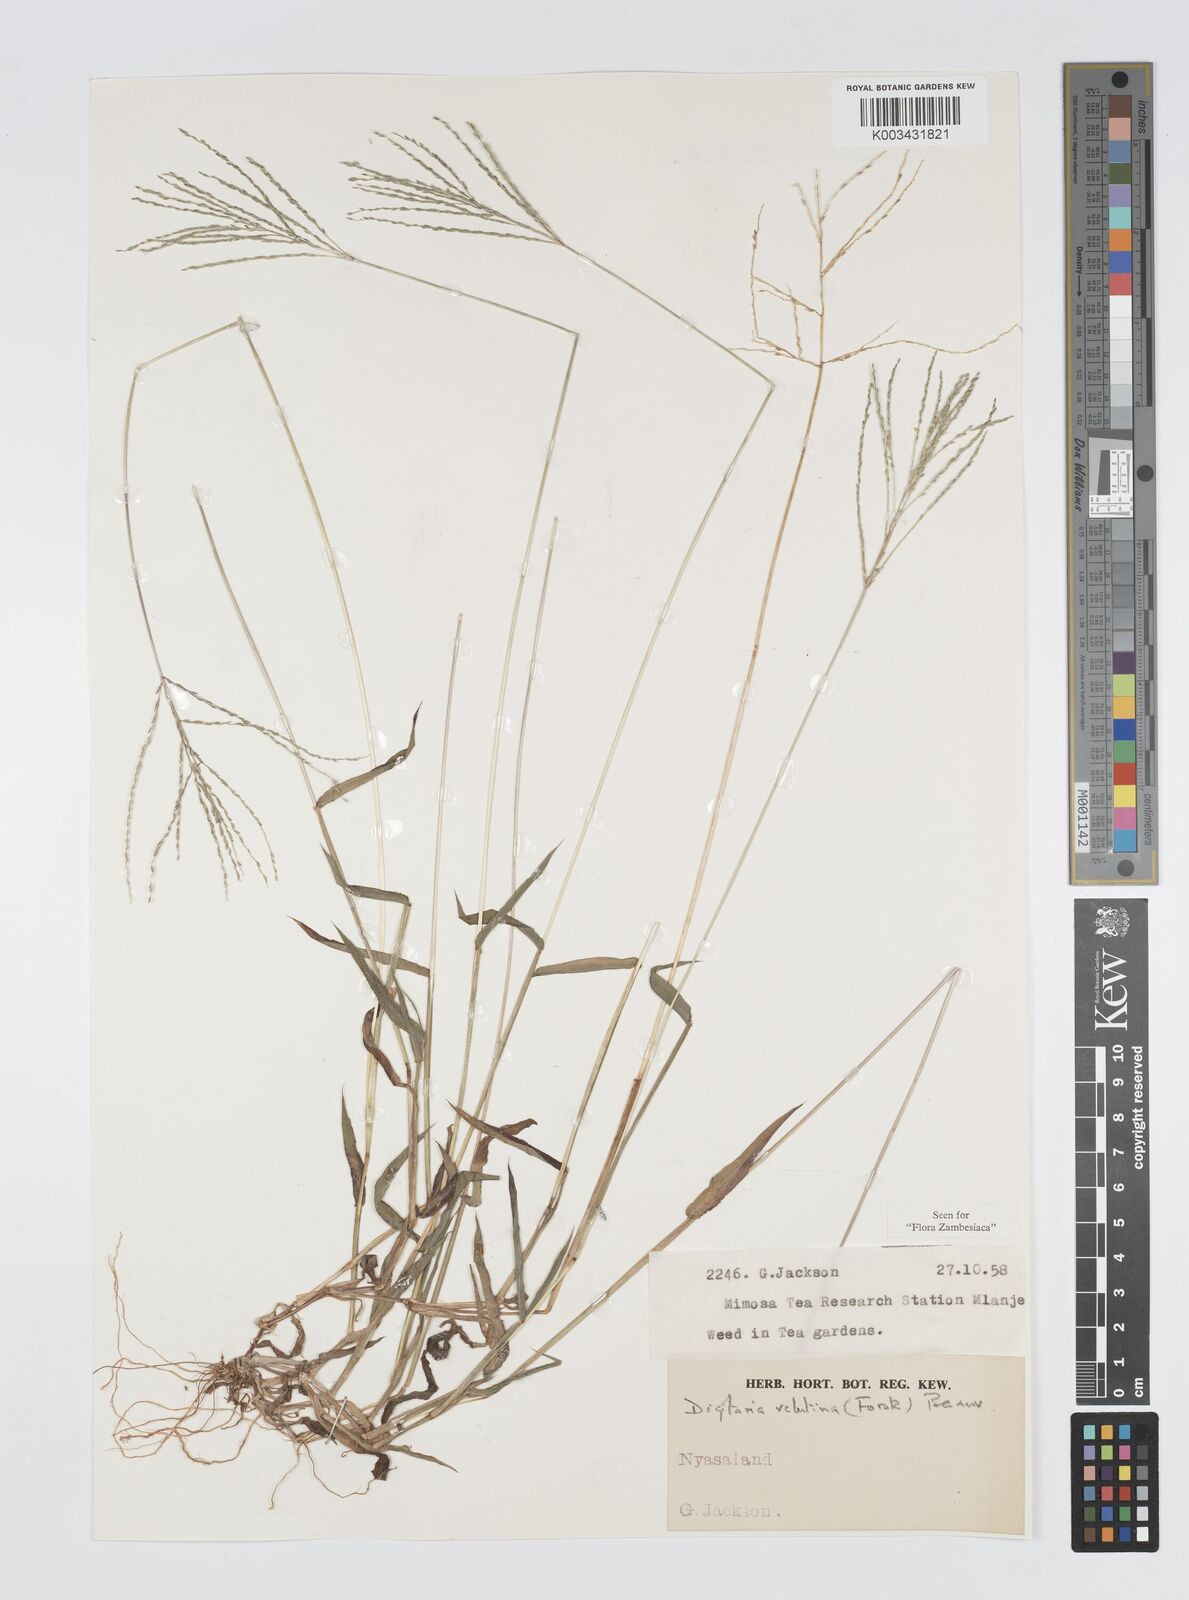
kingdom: Plantae
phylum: Tracheophyta
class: Liliopsida
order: Poales
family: Poaceae
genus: Digitaria
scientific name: Digitaria velutina
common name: Long-plume finger grass
